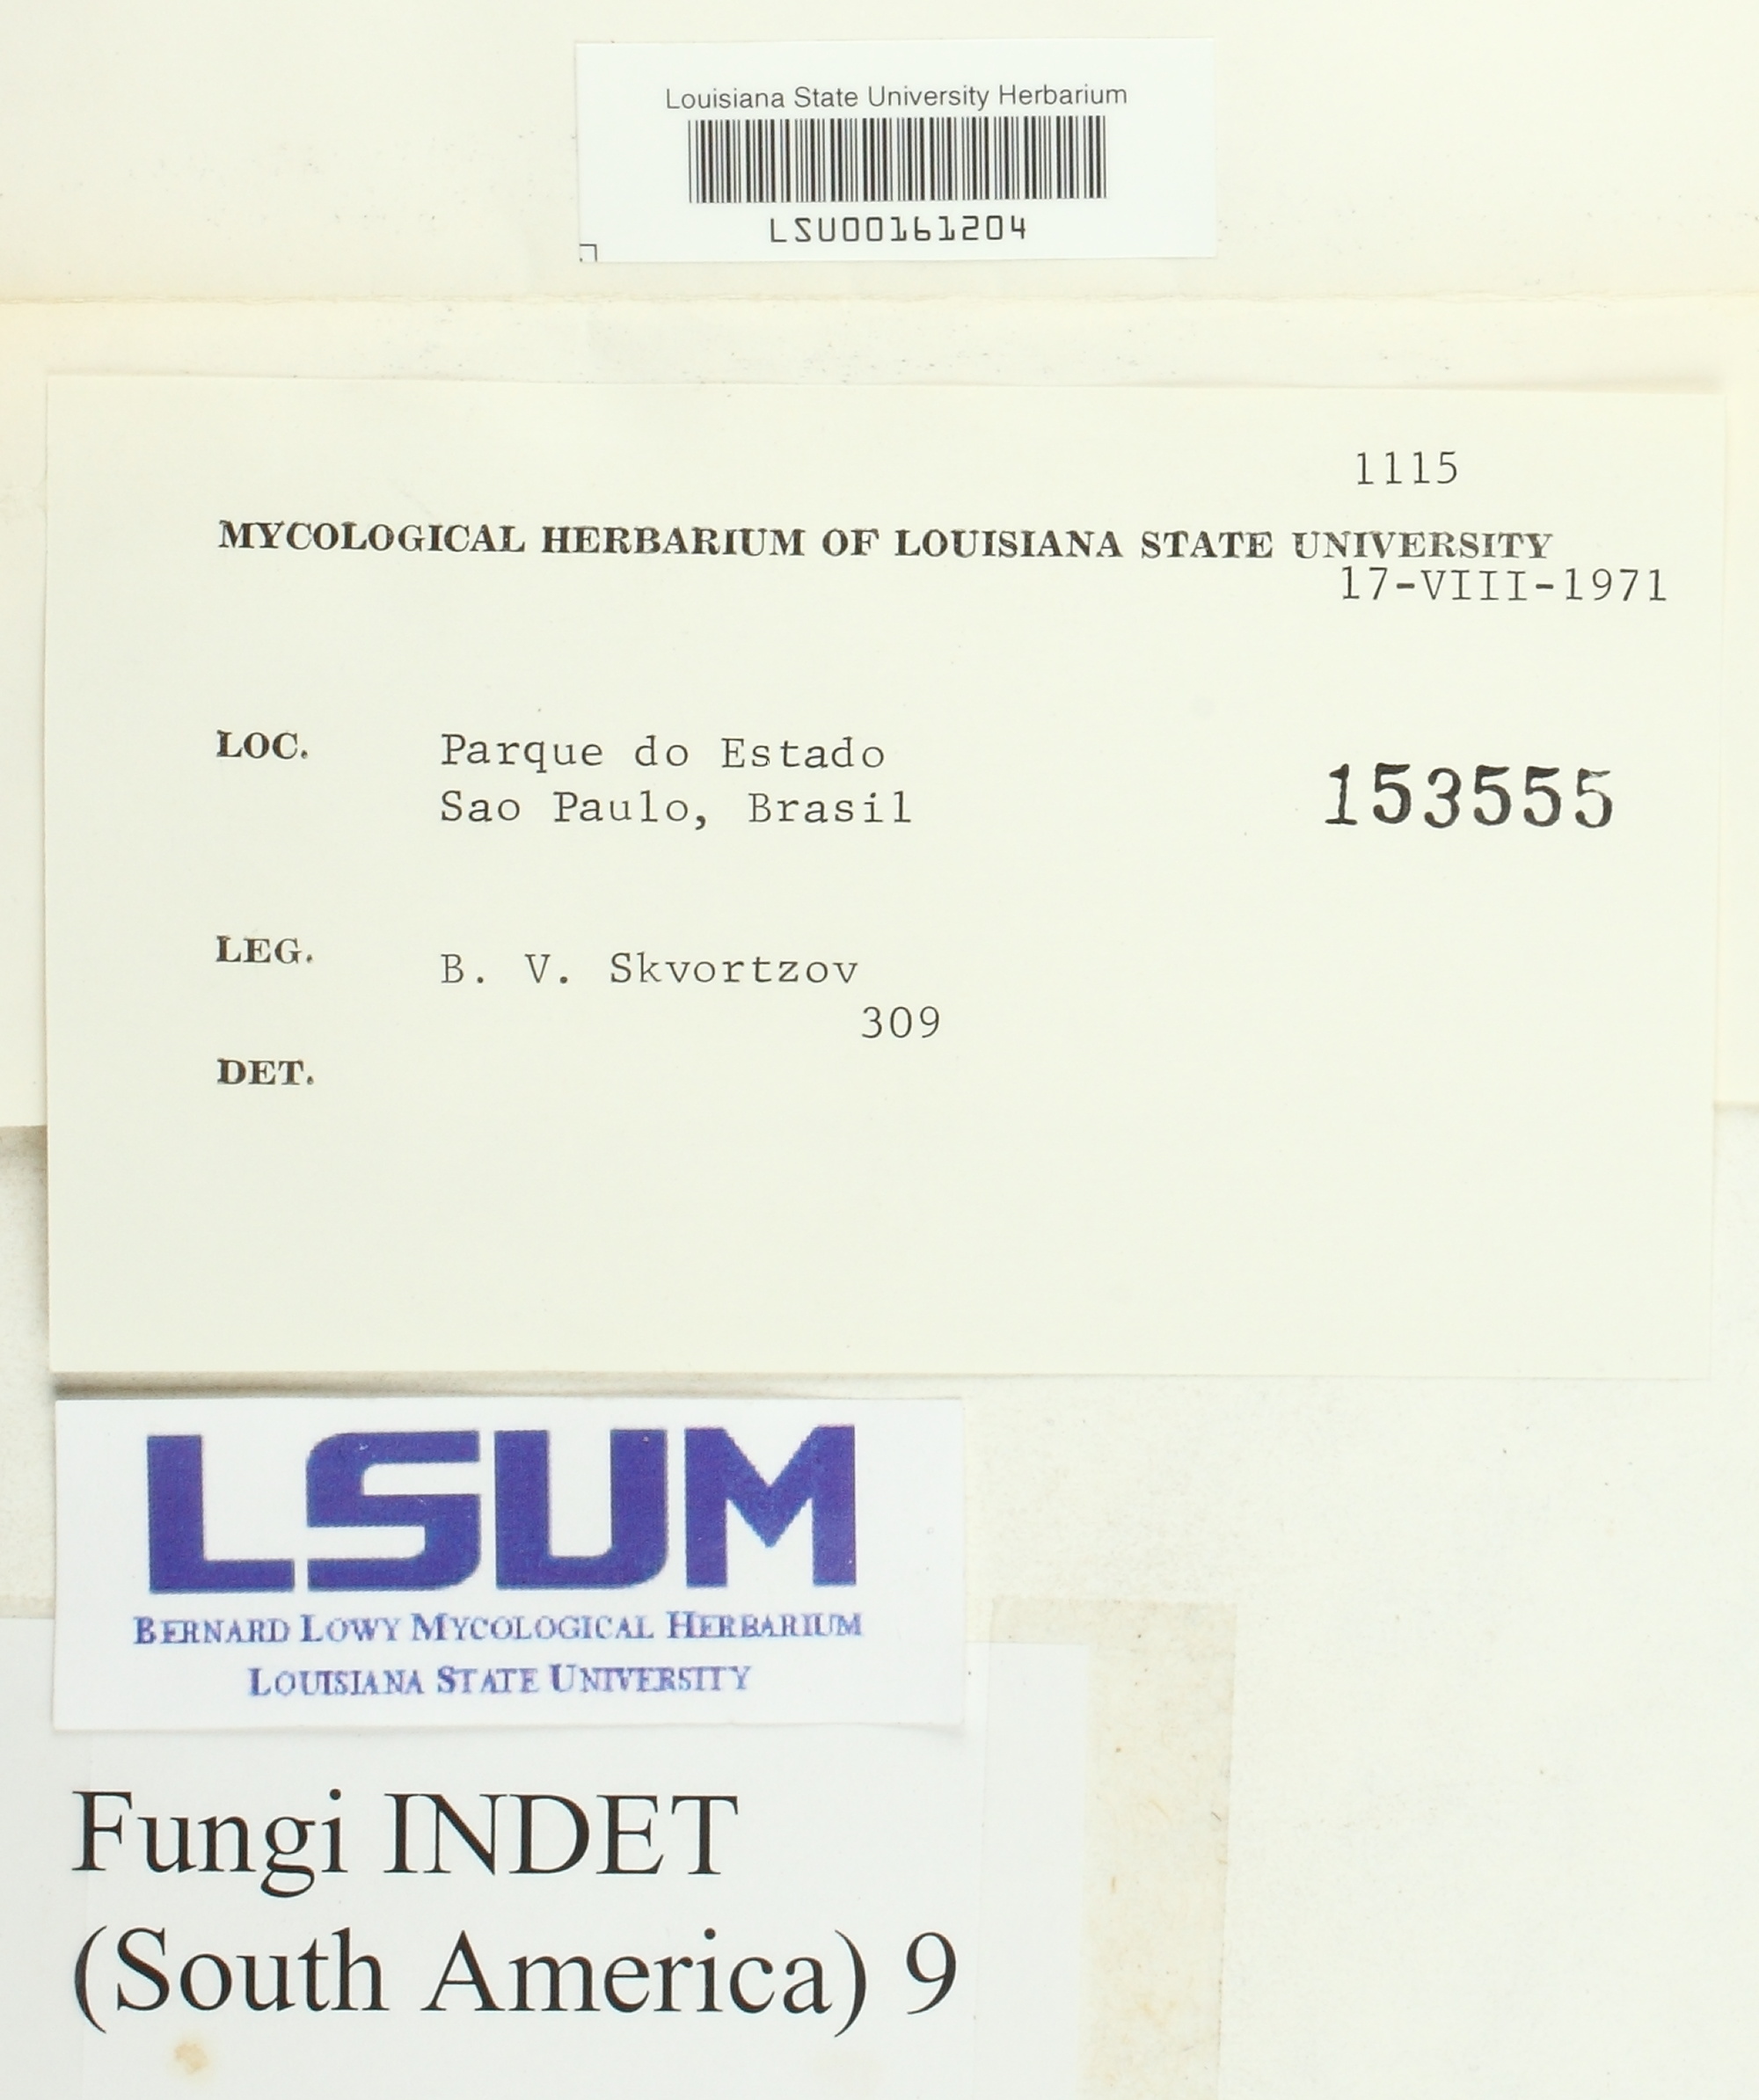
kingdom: Fungi
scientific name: Fungi
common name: Fungi
